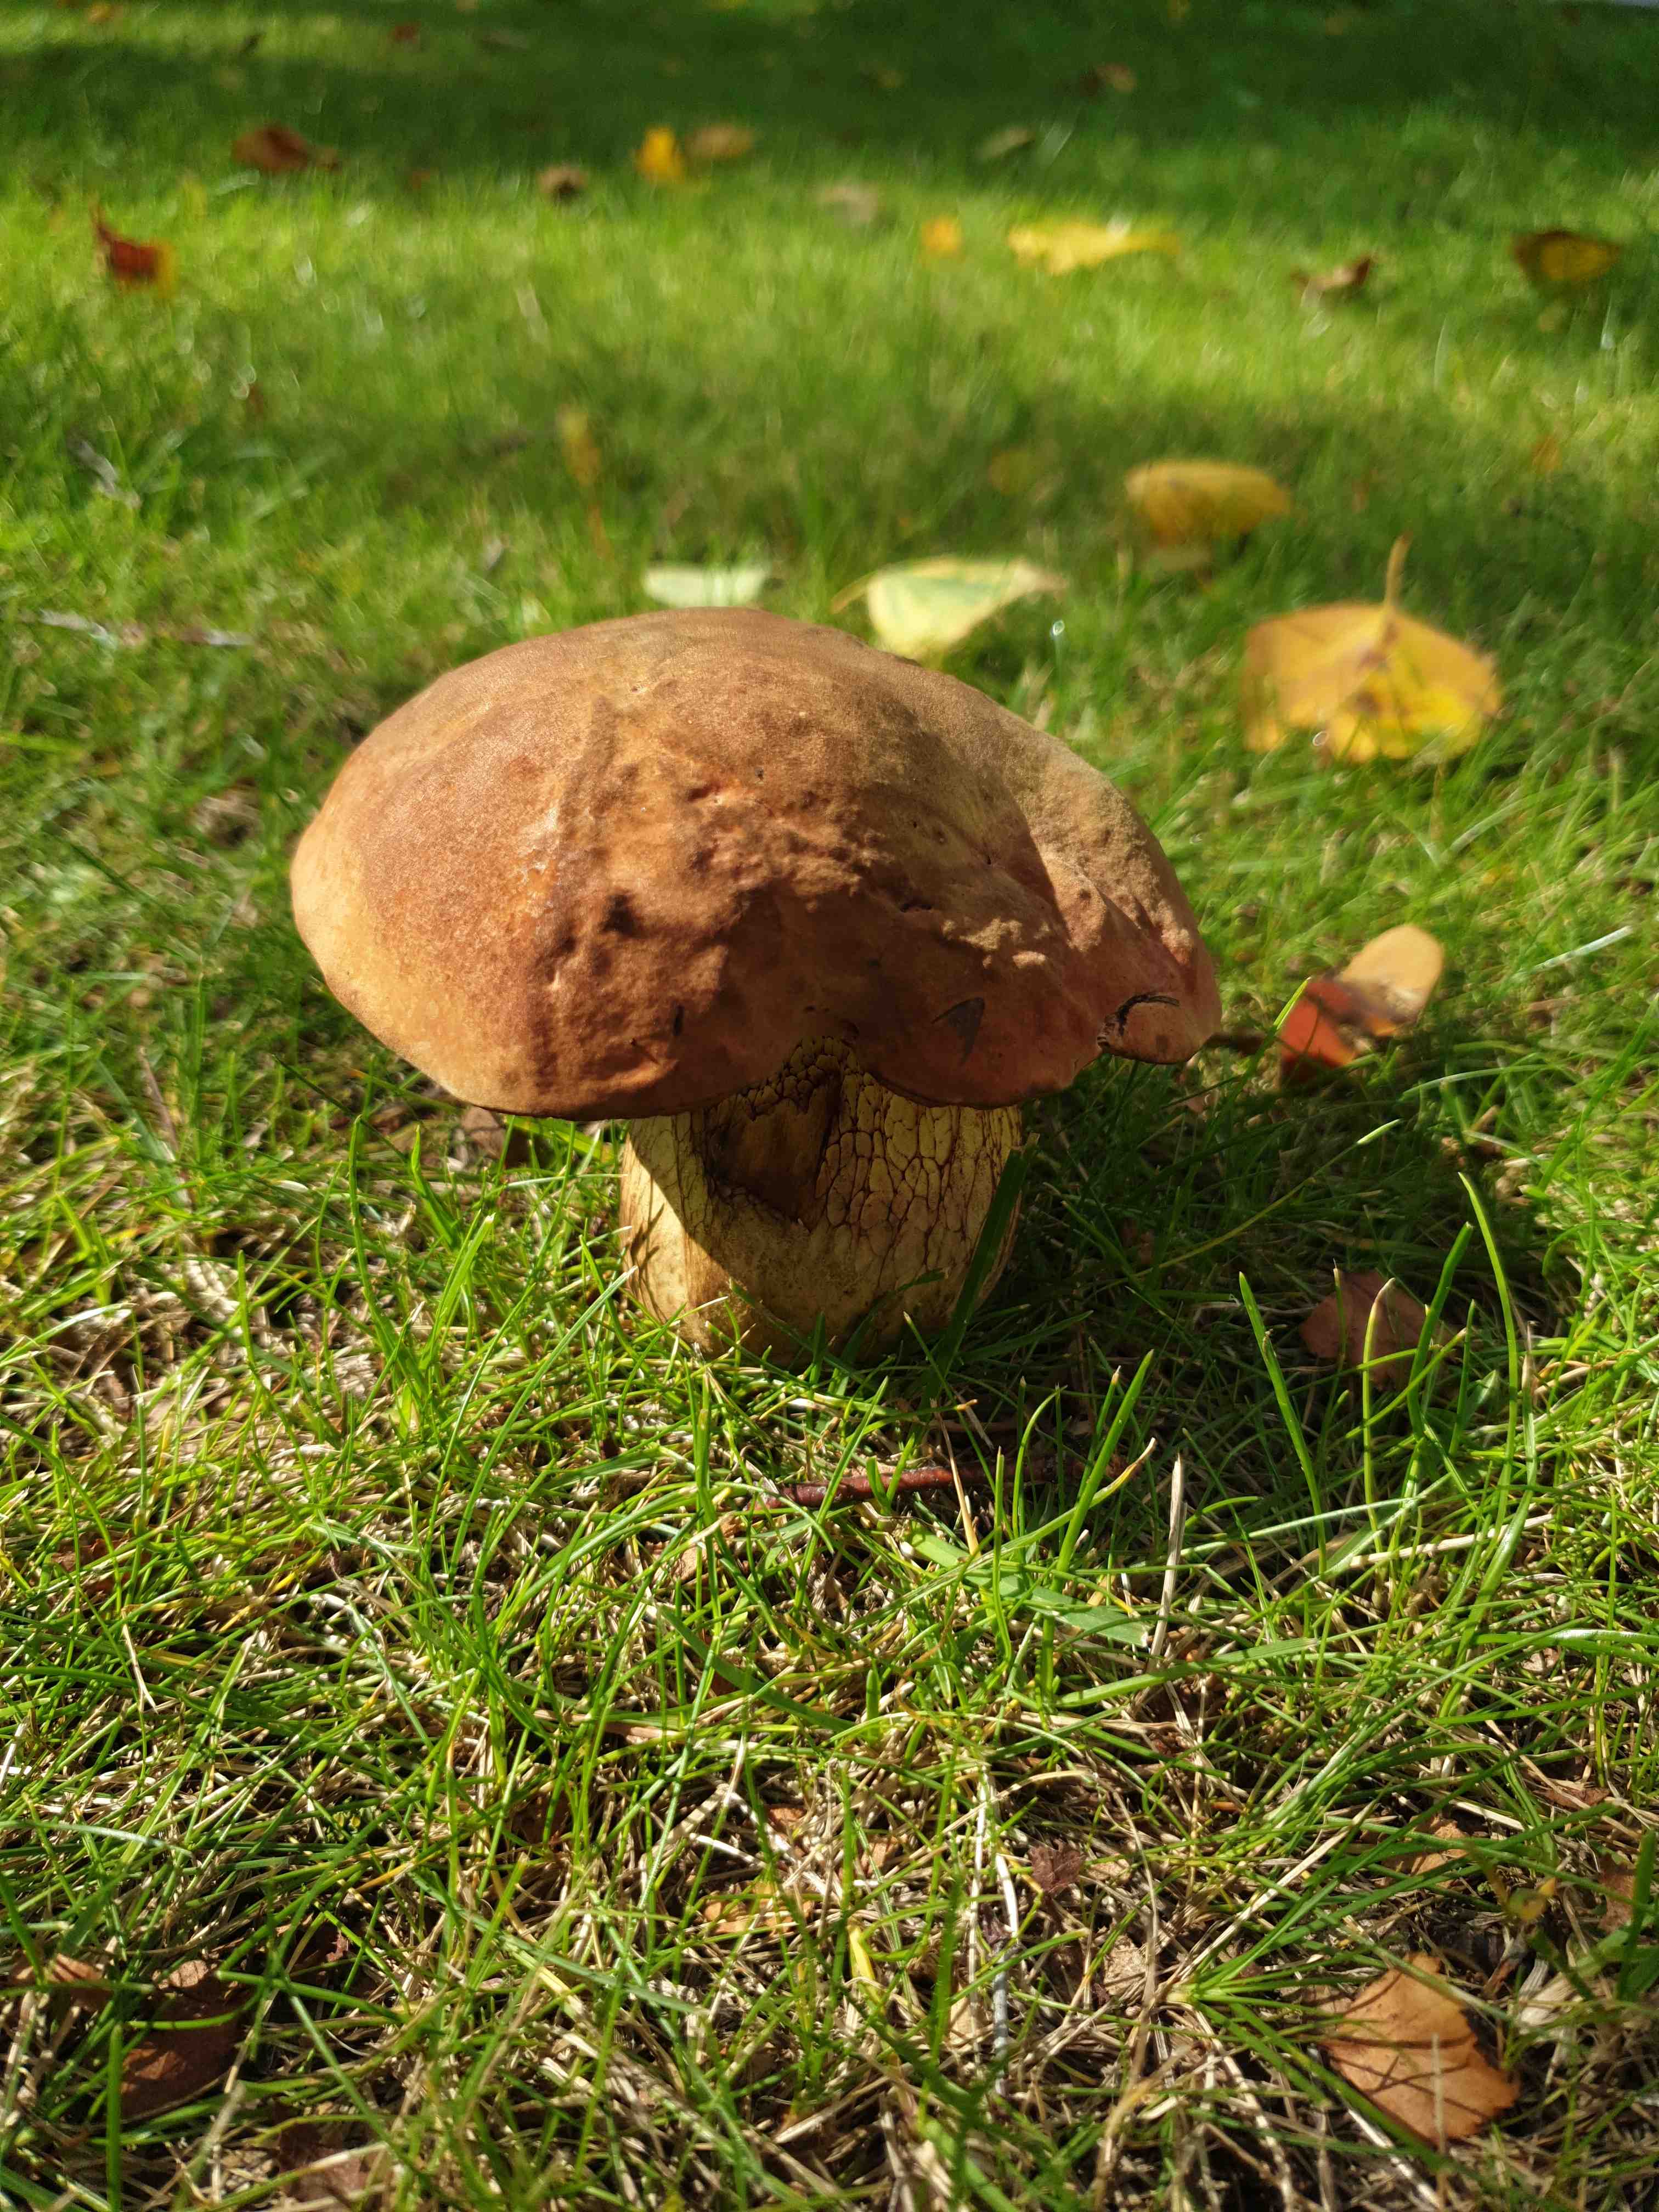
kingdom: Fungi
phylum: Basidiomycota
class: Agaricomycetes
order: Boletales
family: Boletaceae
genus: Suillellus
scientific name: Suillellus luridus
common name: netstokket indigorørhat
